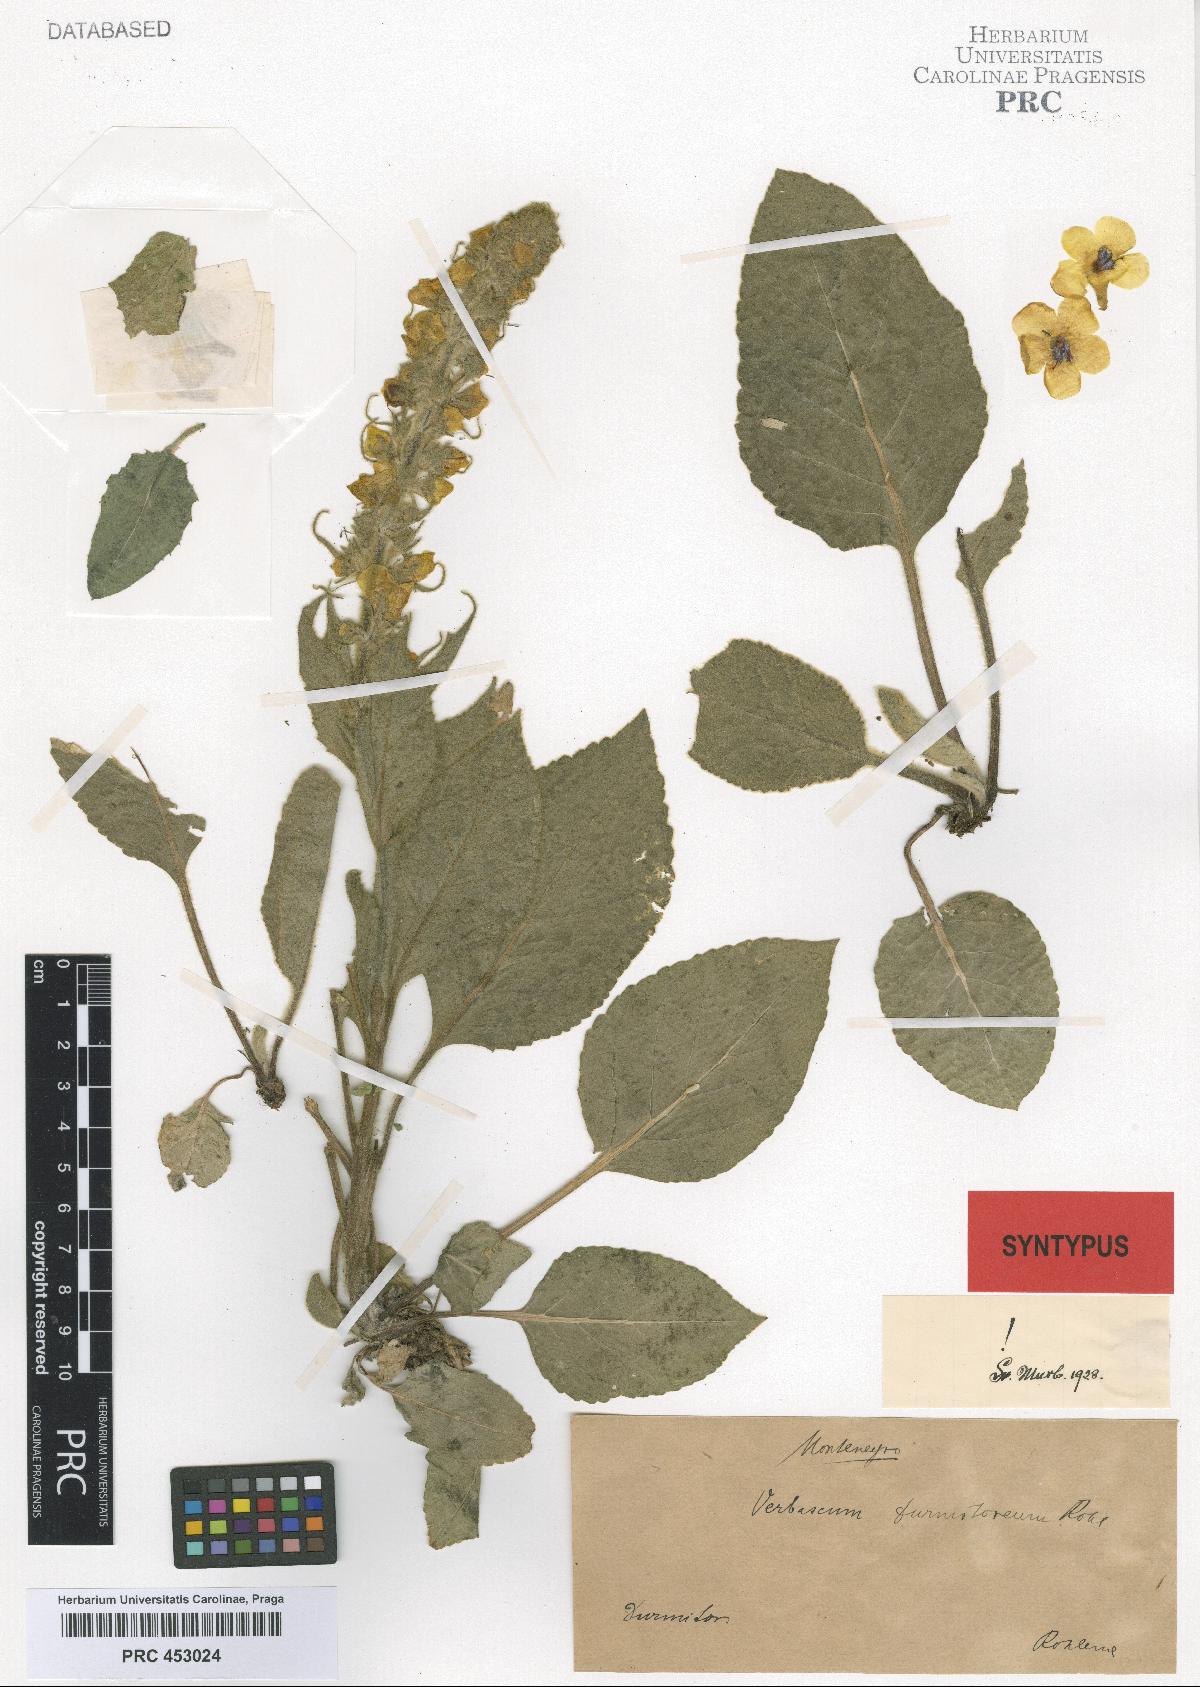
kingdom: Plantae
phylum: Tracheophyta
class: Magnoliopsida
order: Lamiales
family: Scrophulariaceae
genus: Verbascum
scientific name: Verbascum durmitoreum
